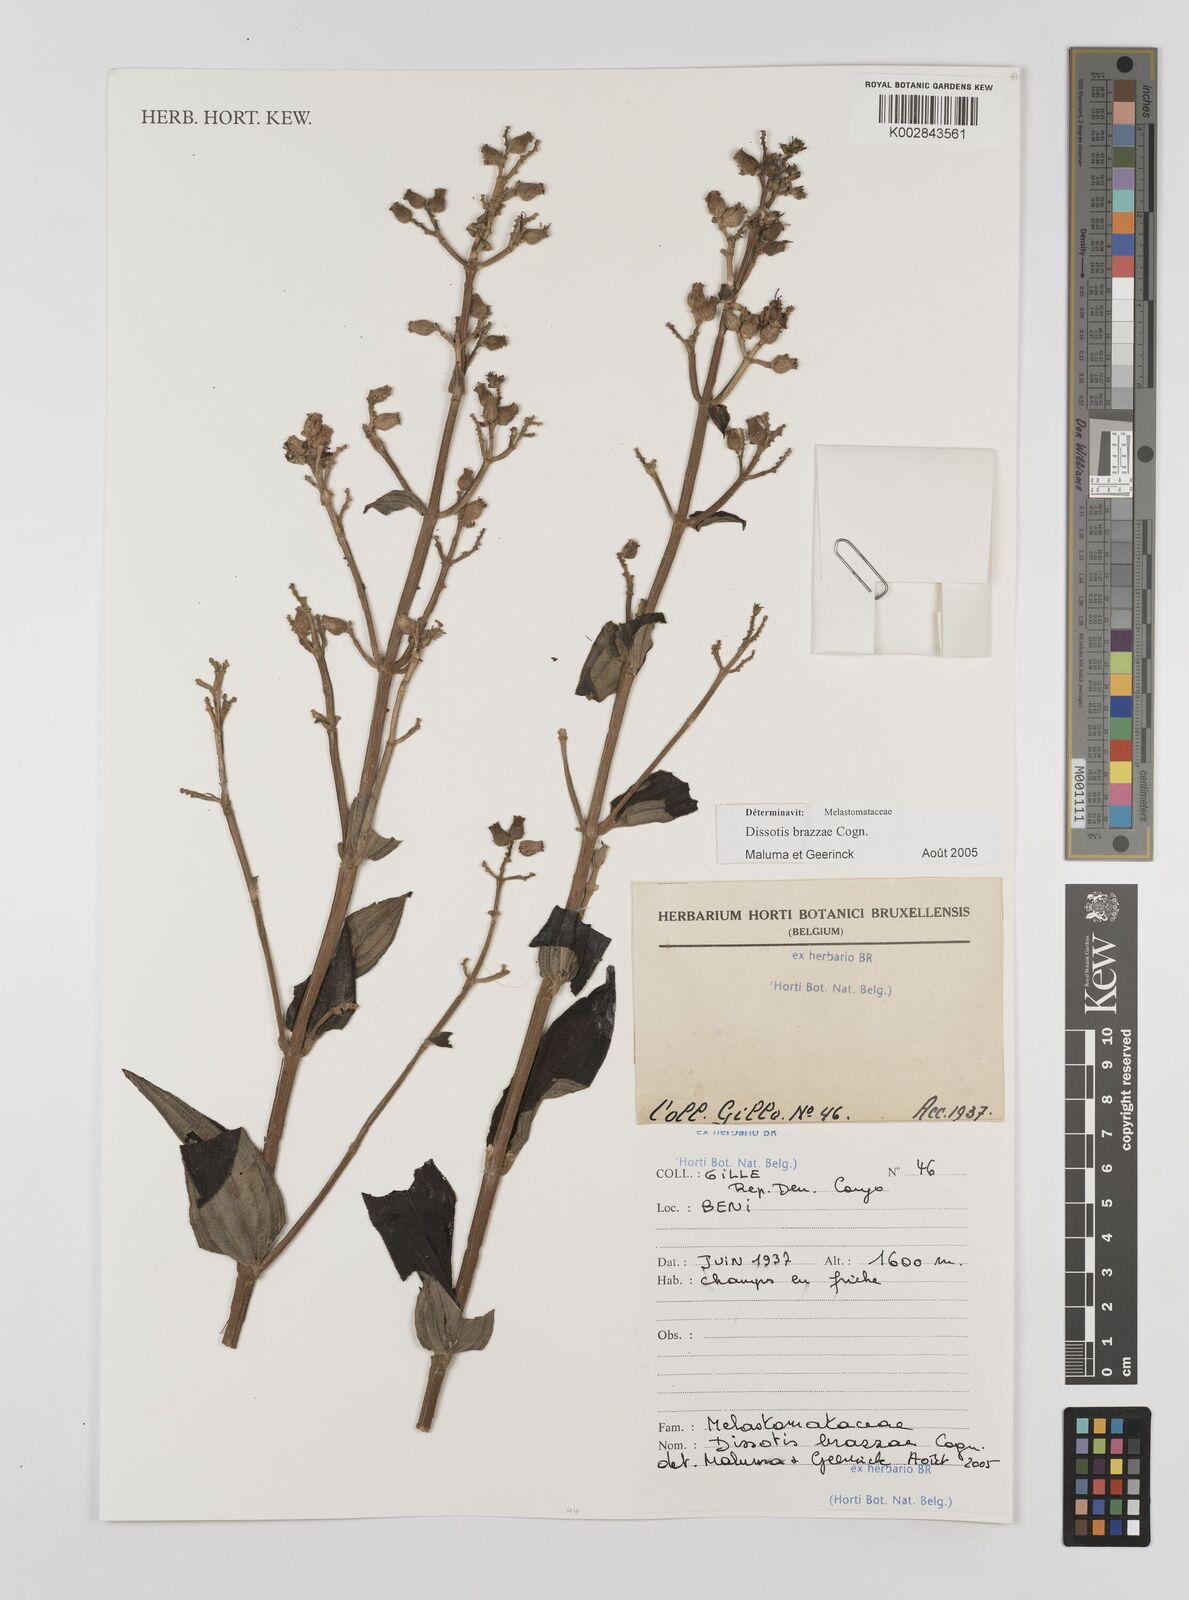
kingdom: Plantae
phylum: Tracheophyta
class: Magnoliopsida
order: Myrtales
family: Melastomataceae
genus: Dupineta
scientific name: Dupineta brazzae
